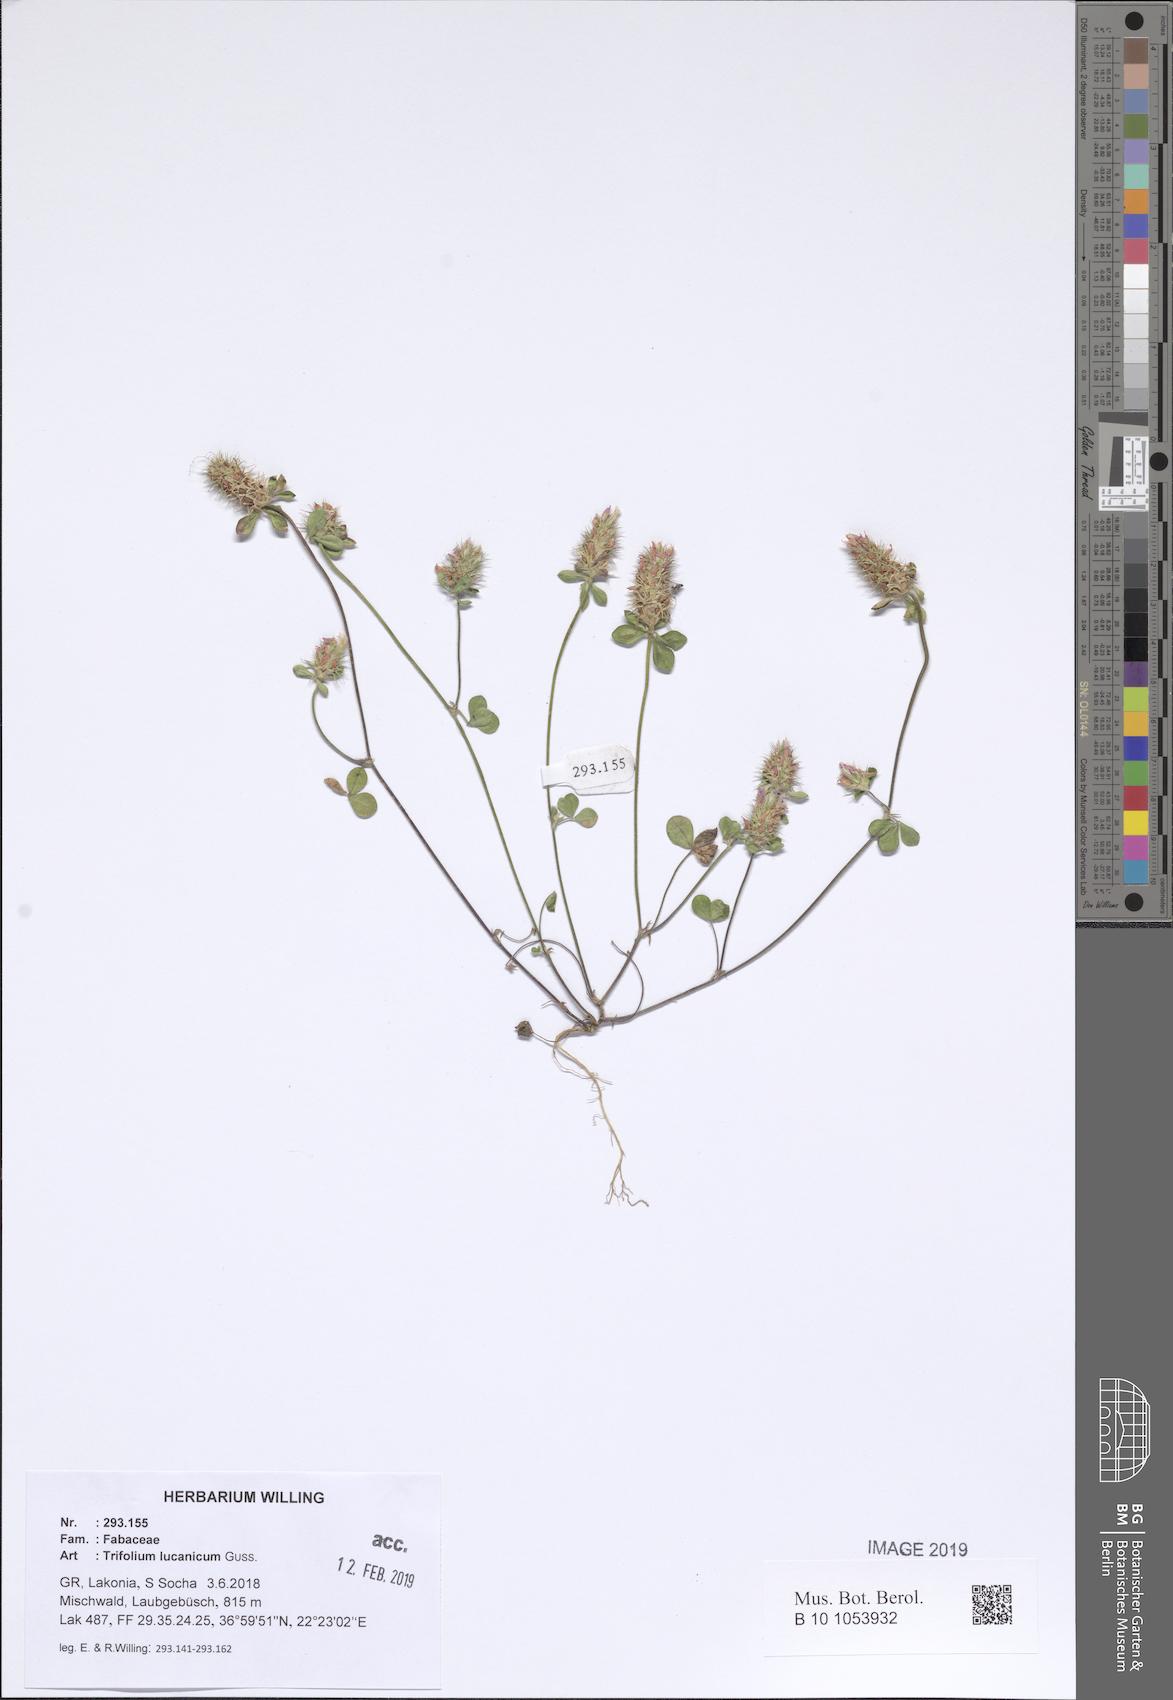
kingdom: Plantae
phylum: Tracheophyta
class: Magnoliopsida
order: Fabales
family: Fabaceae
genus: Trifolium
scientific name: Trifolium lucanicum
